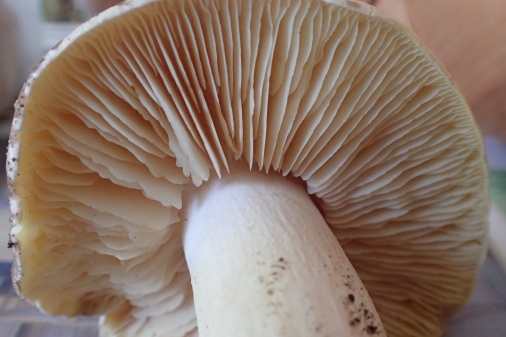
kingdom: Fungi
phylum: Basidiomycota
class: Agaricomycetes
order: Agaricales
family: Entolomataceae
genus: Entoloma
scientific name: Entoloma sinuatum
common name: giftig rødblad
